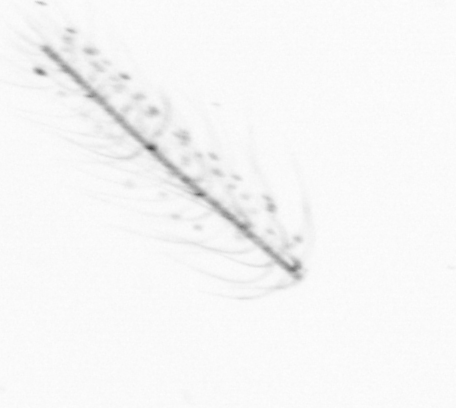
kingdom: Chromista
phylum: Ochrophyta
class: Bacillariophyceae
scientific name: Bacillariophyceae
